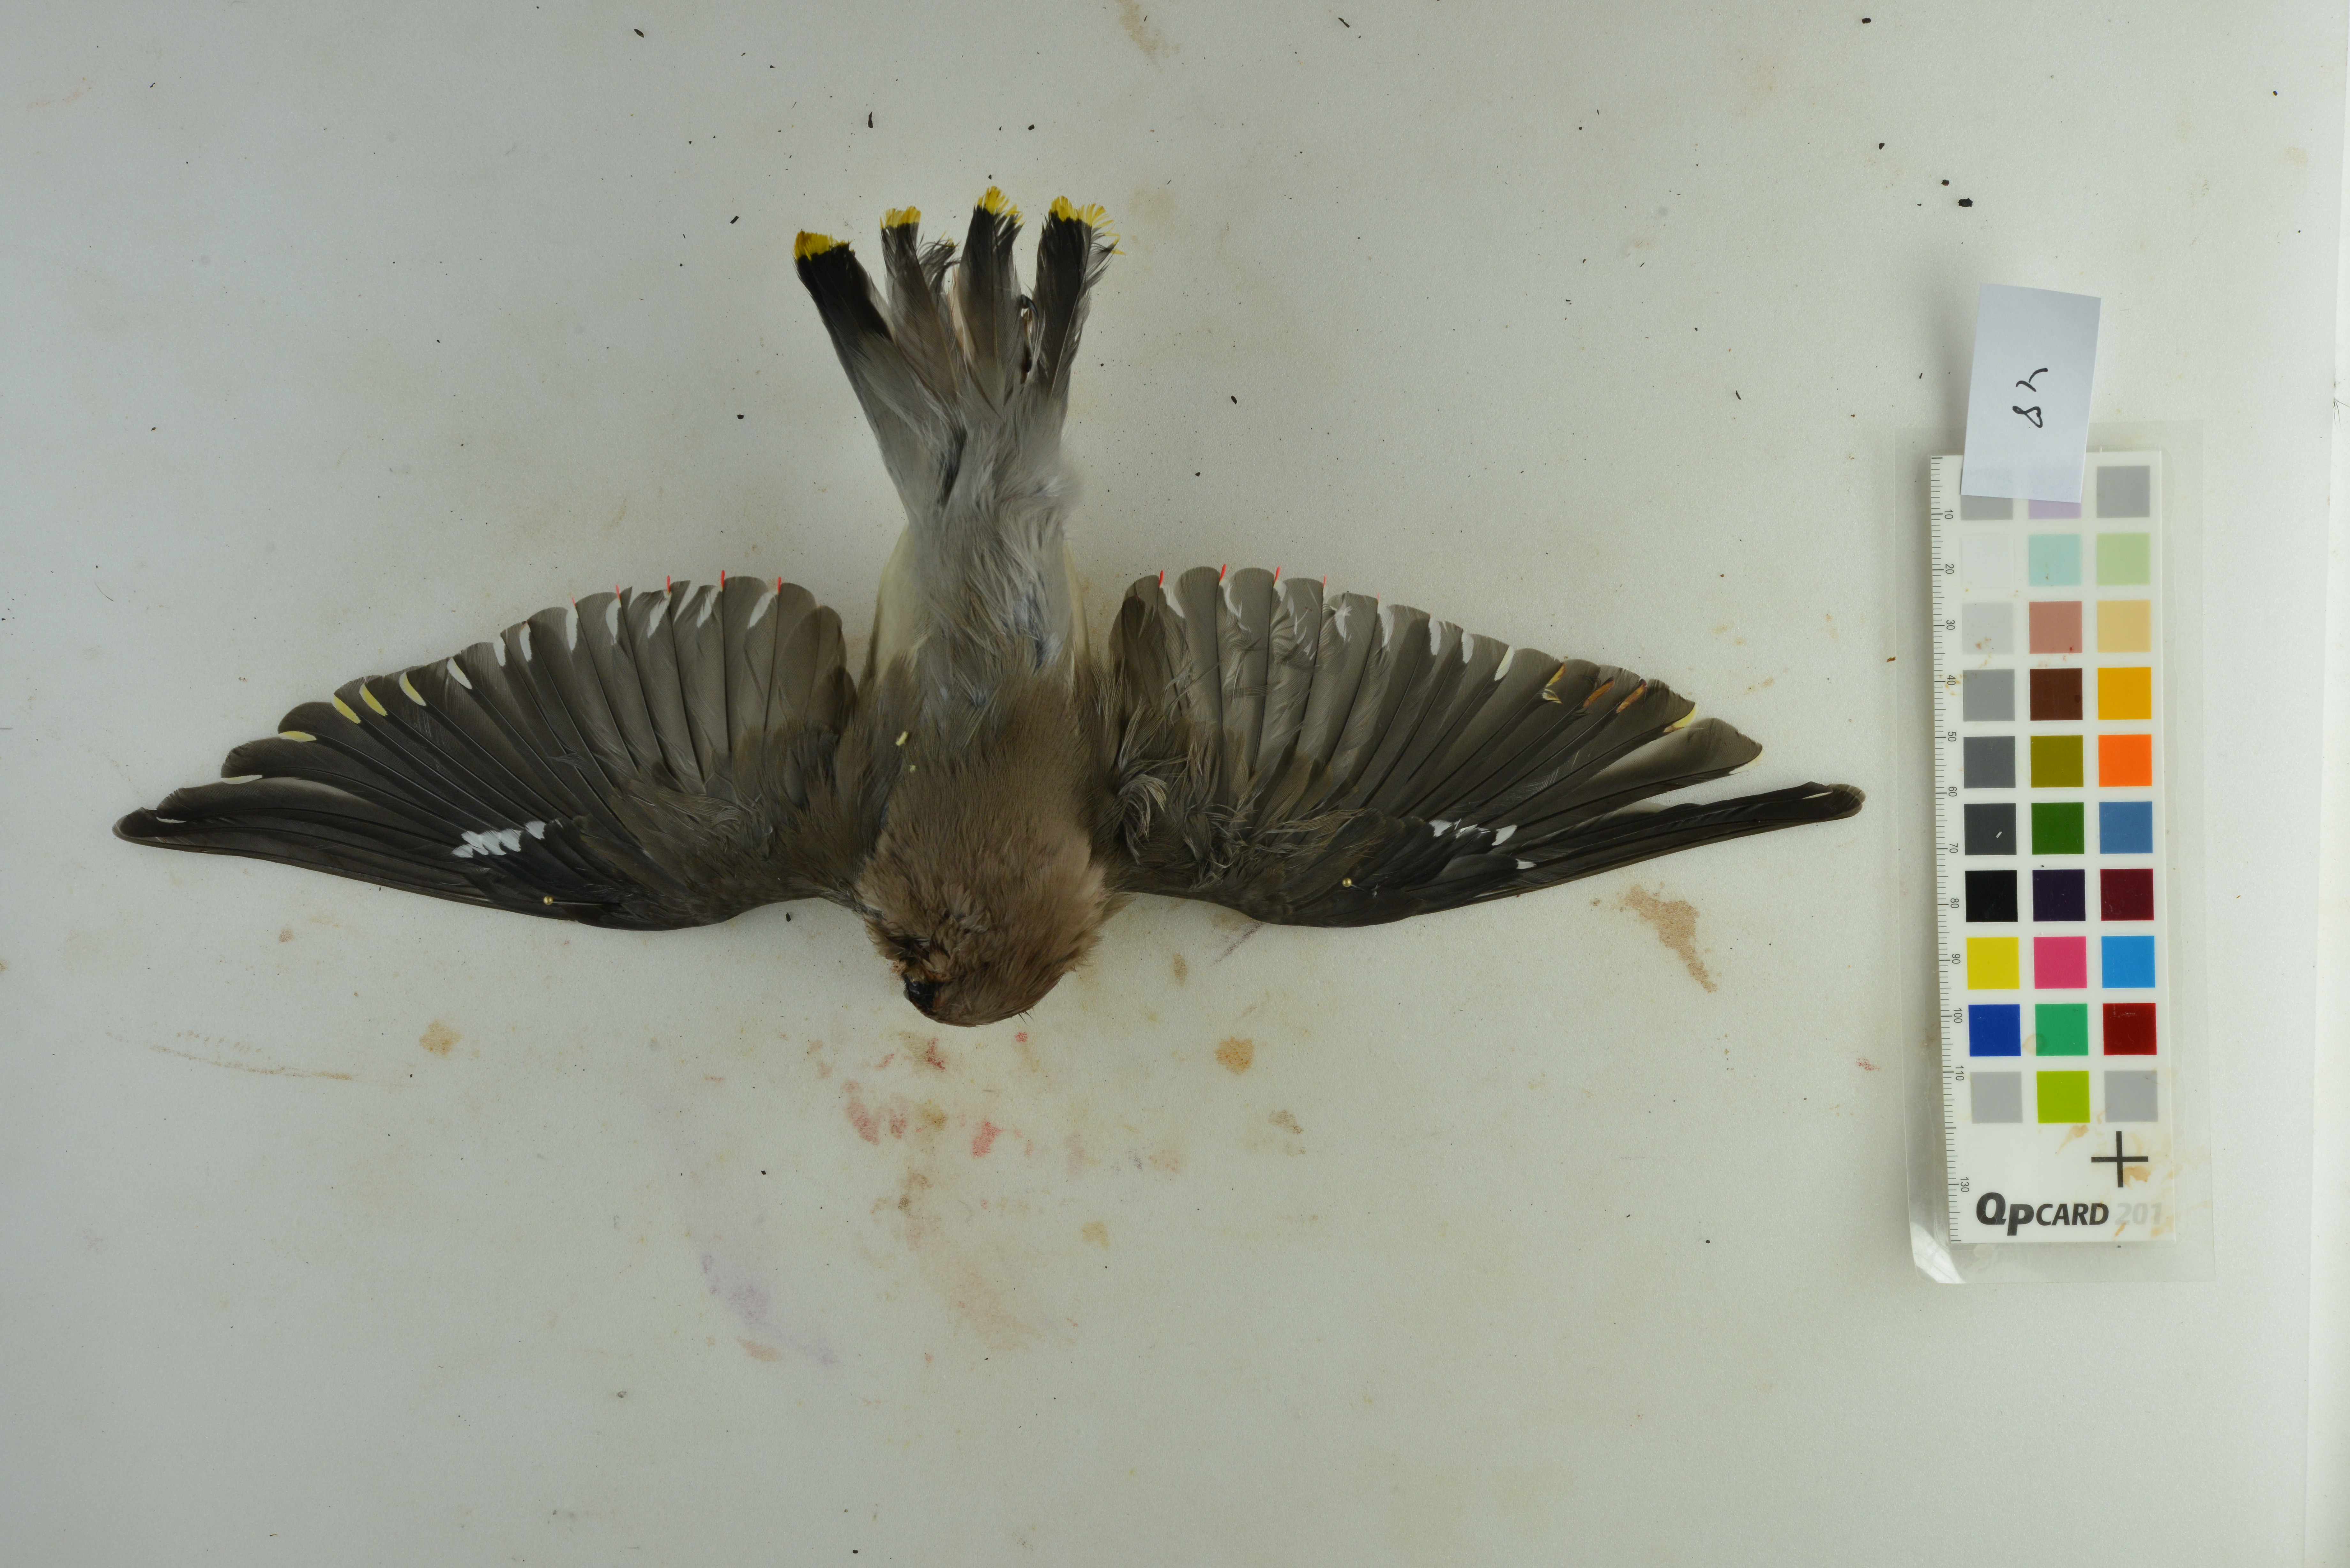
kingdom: Animalia
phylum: Chordata
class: Aves
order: Passeriformes
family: Bombycillidae
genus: Bombycilla
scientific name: Bombycilla garrulus
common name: Bohemian waxwing
